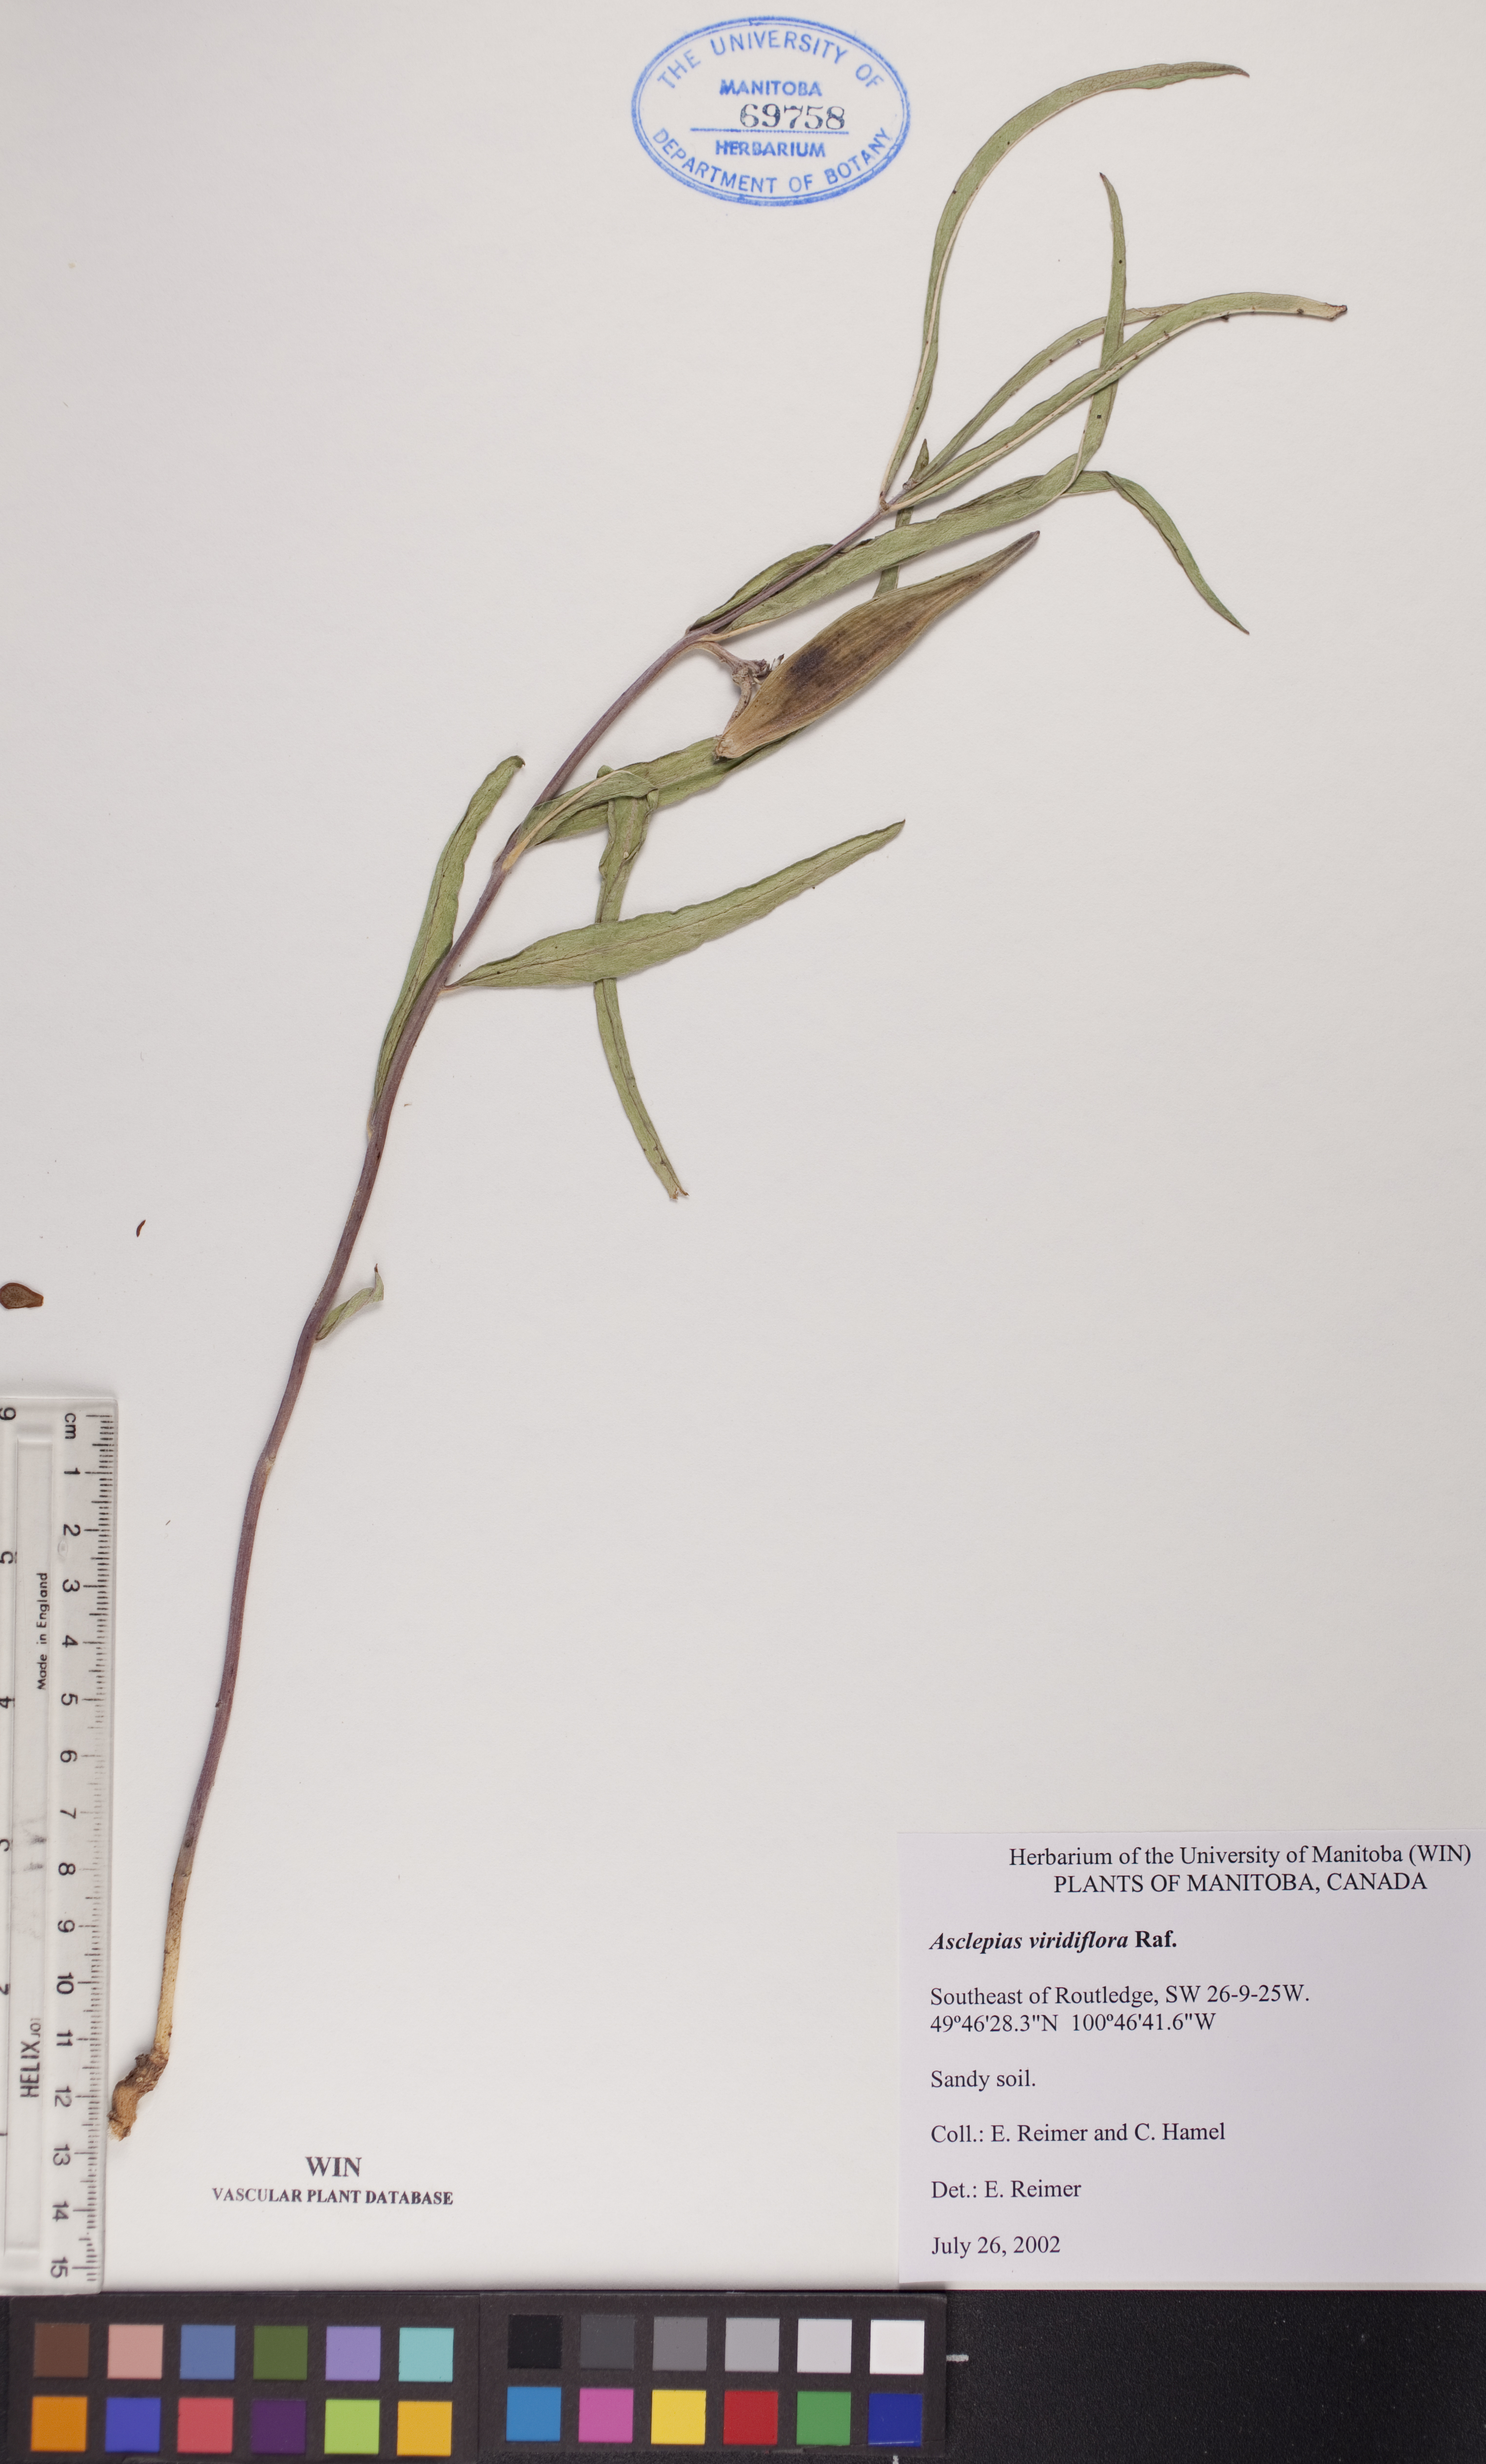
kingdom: Plantae
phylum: Tracheophyta
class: Magnoliopsida
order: Gentianales
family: Apocynaceae
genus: Asclepias
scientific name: Asclepias viridiflora
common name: Green comet milkweed
